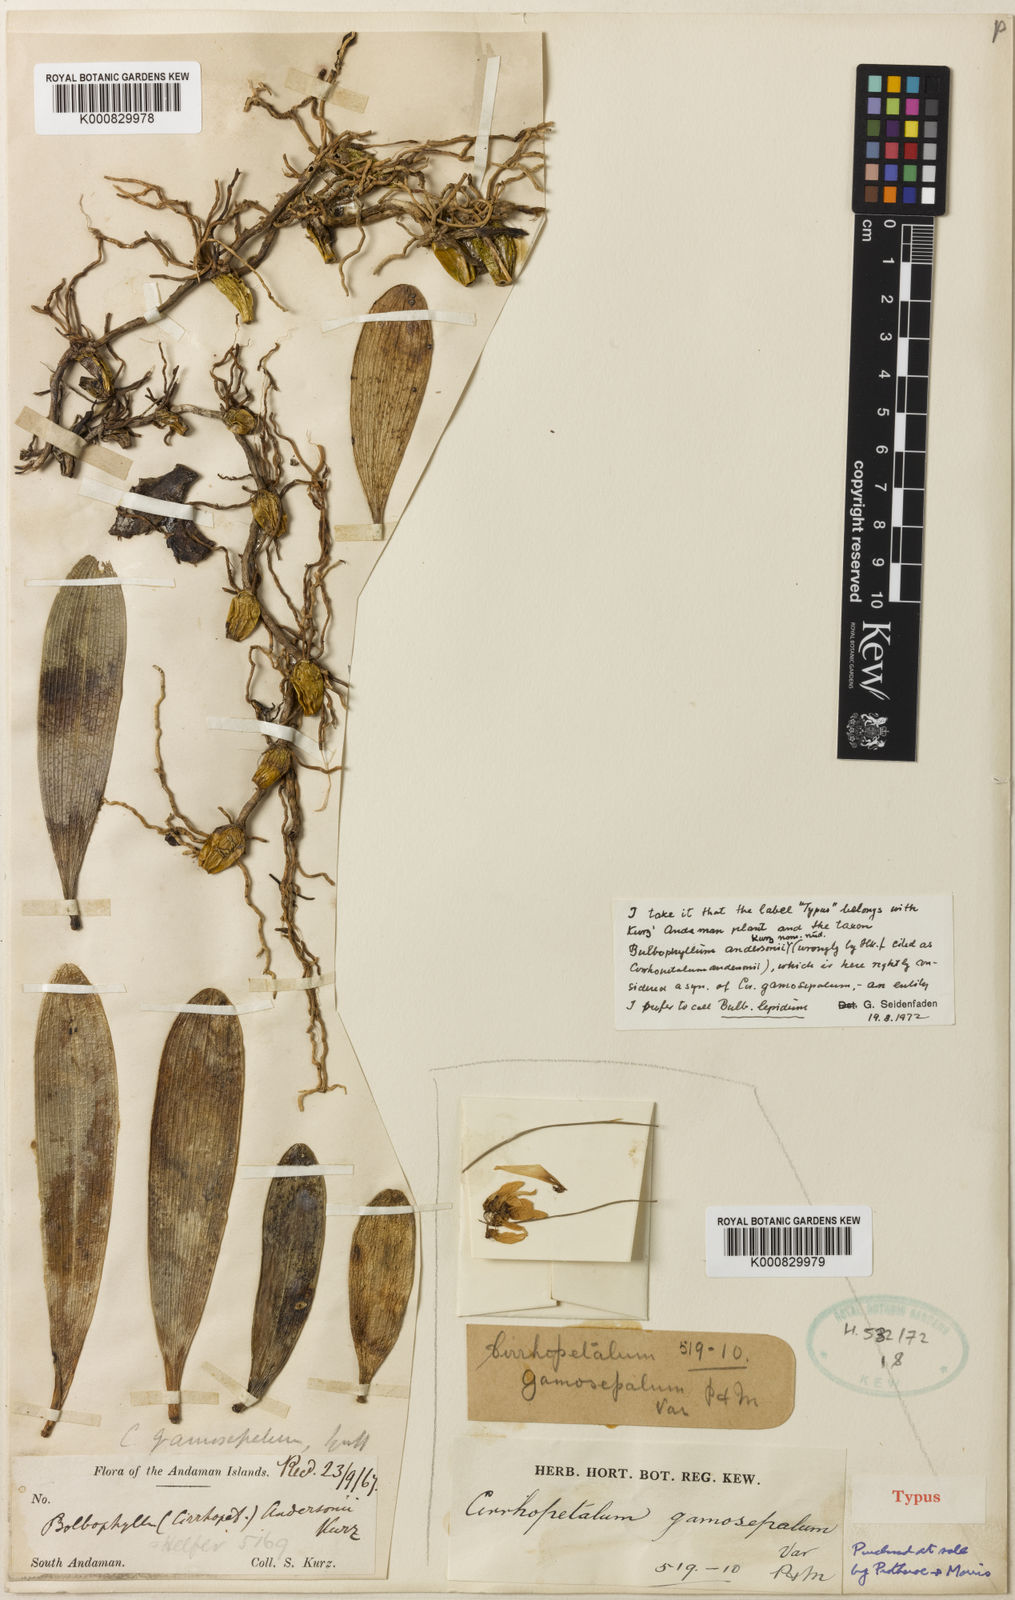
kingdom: Plantae
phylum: Tracheophyta
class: Liliopsida
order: Asparagales
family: Orchidaceae
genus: Bulbophyllum
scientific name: Bulbophyllum lepidum
